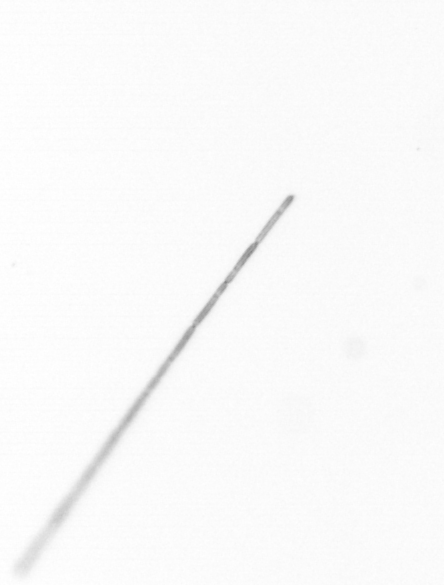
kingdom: Chromista
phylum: Ochrophyta
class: Bacillariophyceae
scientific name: Bacillariophyceae
